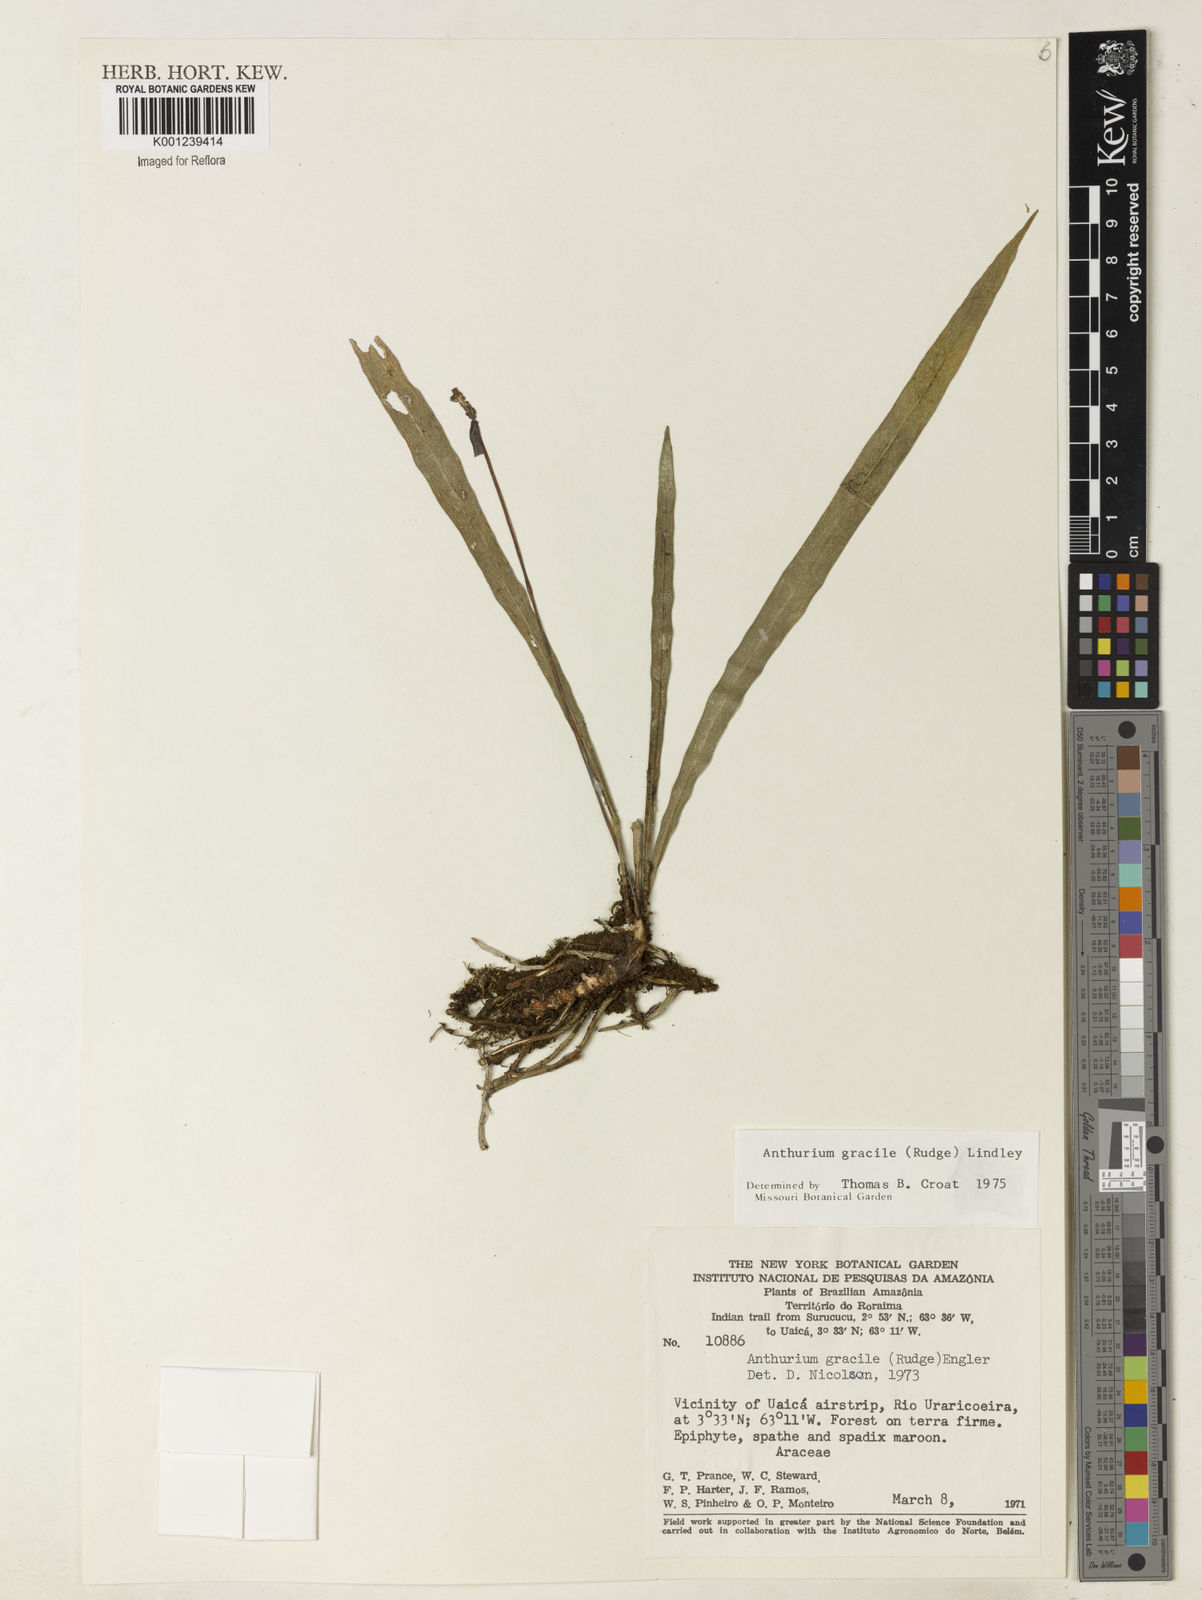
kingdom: Plantae
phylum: Tracheophyta
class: Liliopsida
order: Alismatales
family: Araceae
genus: Anthurium
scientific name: Anthurium gracile
